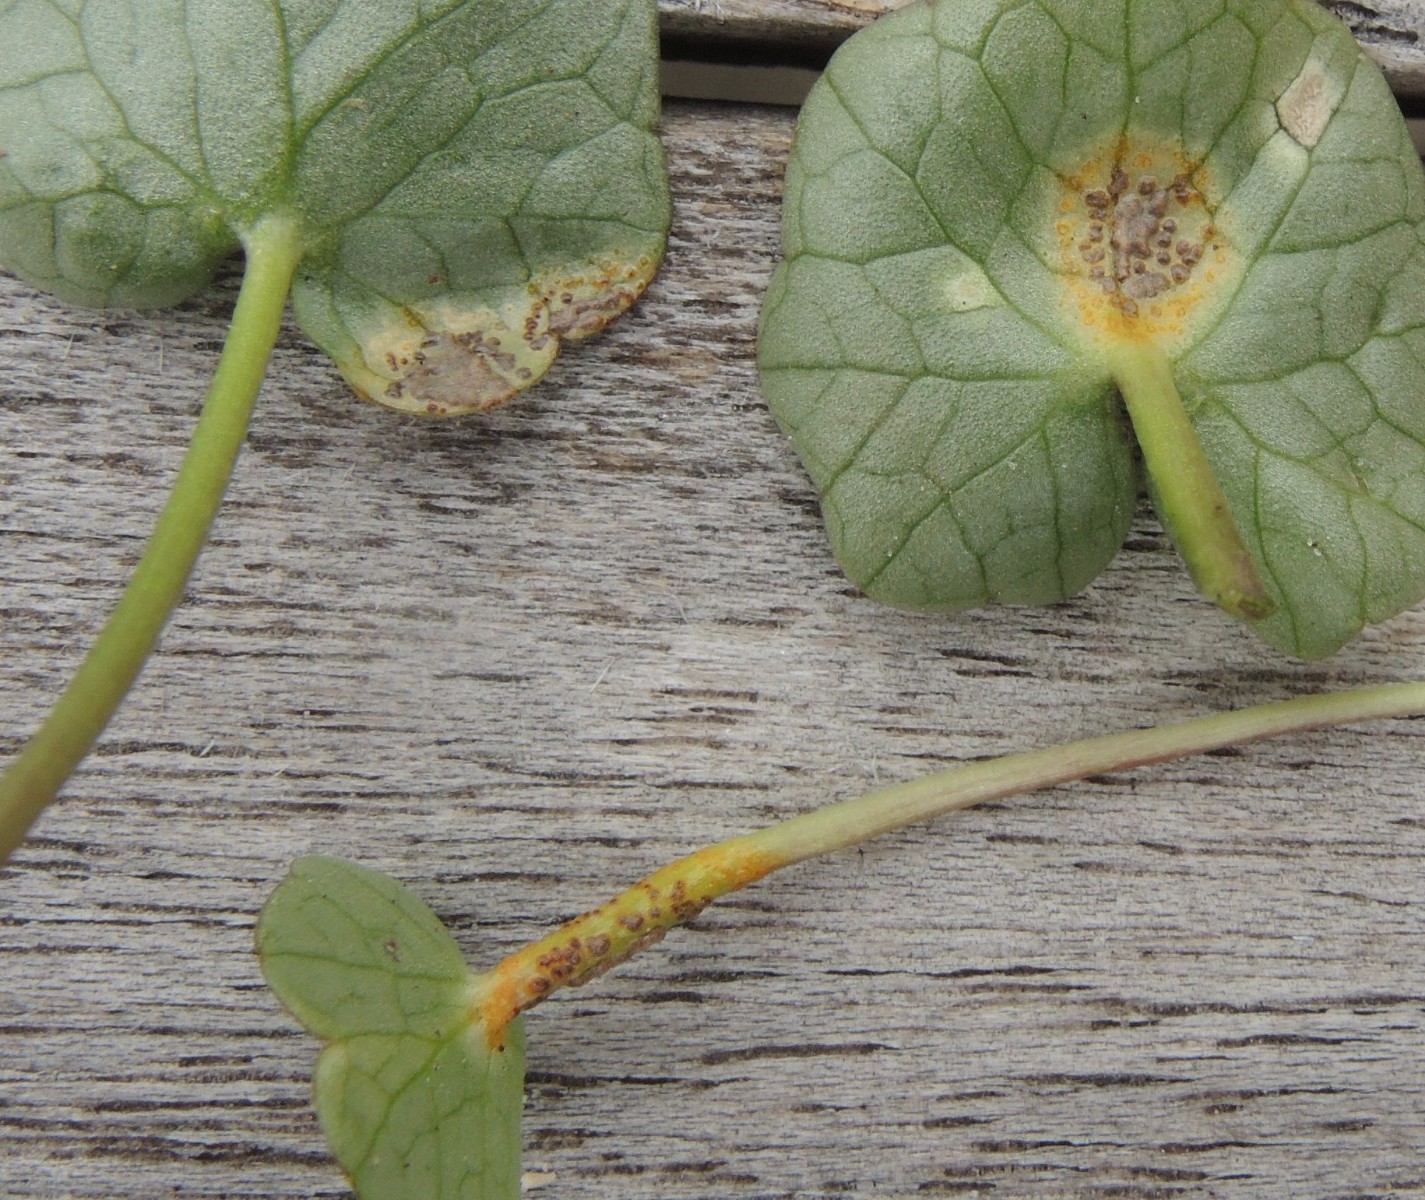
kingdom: Fungi
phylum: Basidiomycota
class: Pucciniomycetes
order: Pucciniales
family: Pucciniaceae
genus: Uromyces
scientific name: Uromyces ficariae
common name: vorterod-encellerust
